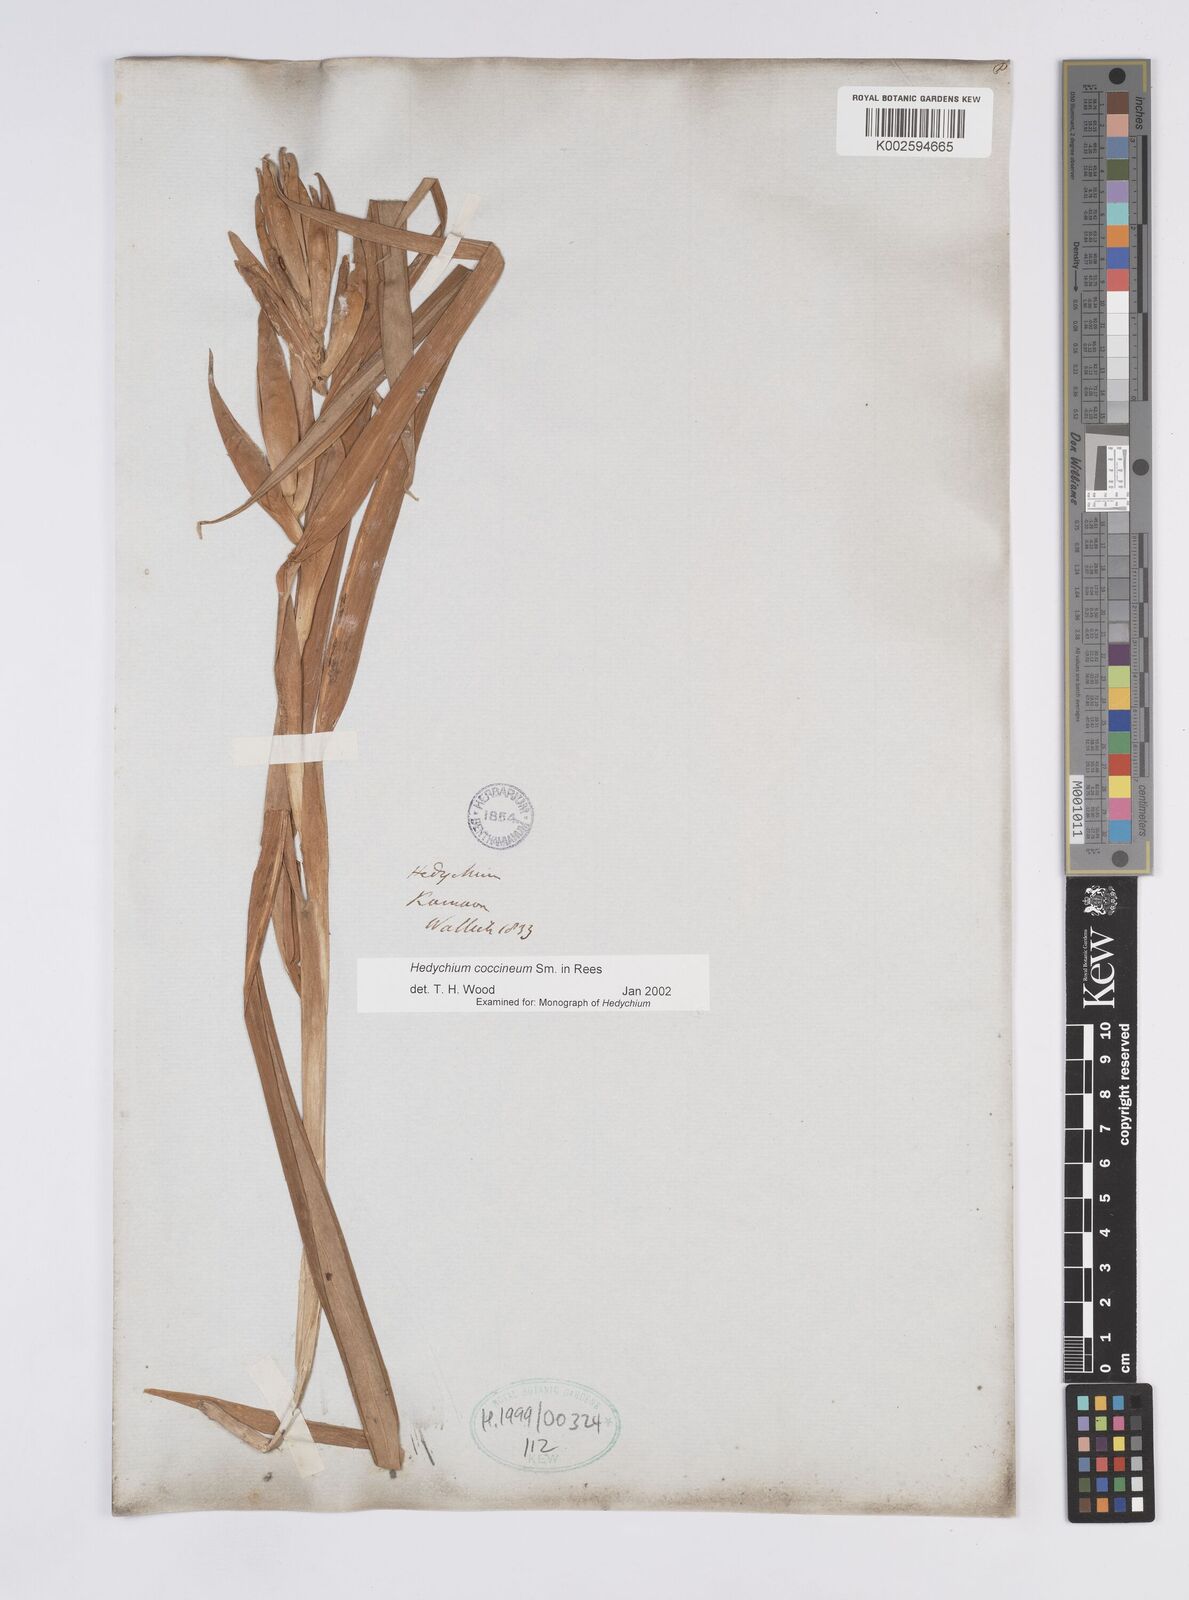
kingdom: Plantae
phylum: Tracheophyta
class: Liliopsida
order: Zingiberales
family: Zingiberaceae
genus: Hedychium
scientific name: Hedychium coccineum
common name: Red ginger-lily
